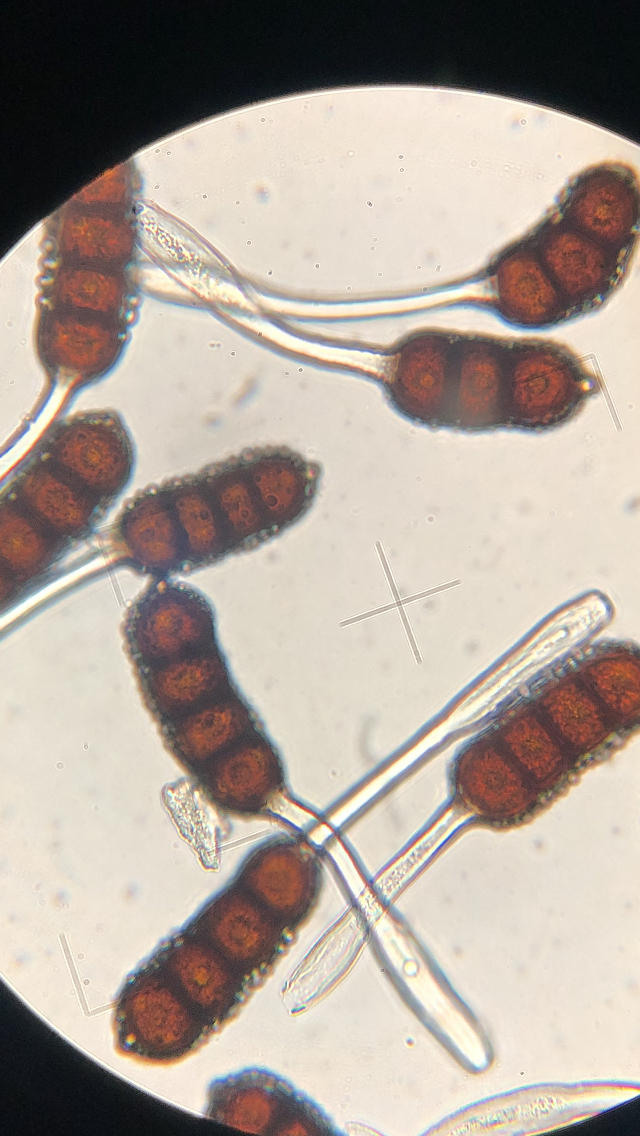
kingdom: Fungi
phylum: Basidiomycota
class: Pucciniomycetes
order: Pucciniales
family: Phragmidiaceae
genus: Phragmidium
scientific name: Phragmidium violaceum
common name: violet flercellerust
